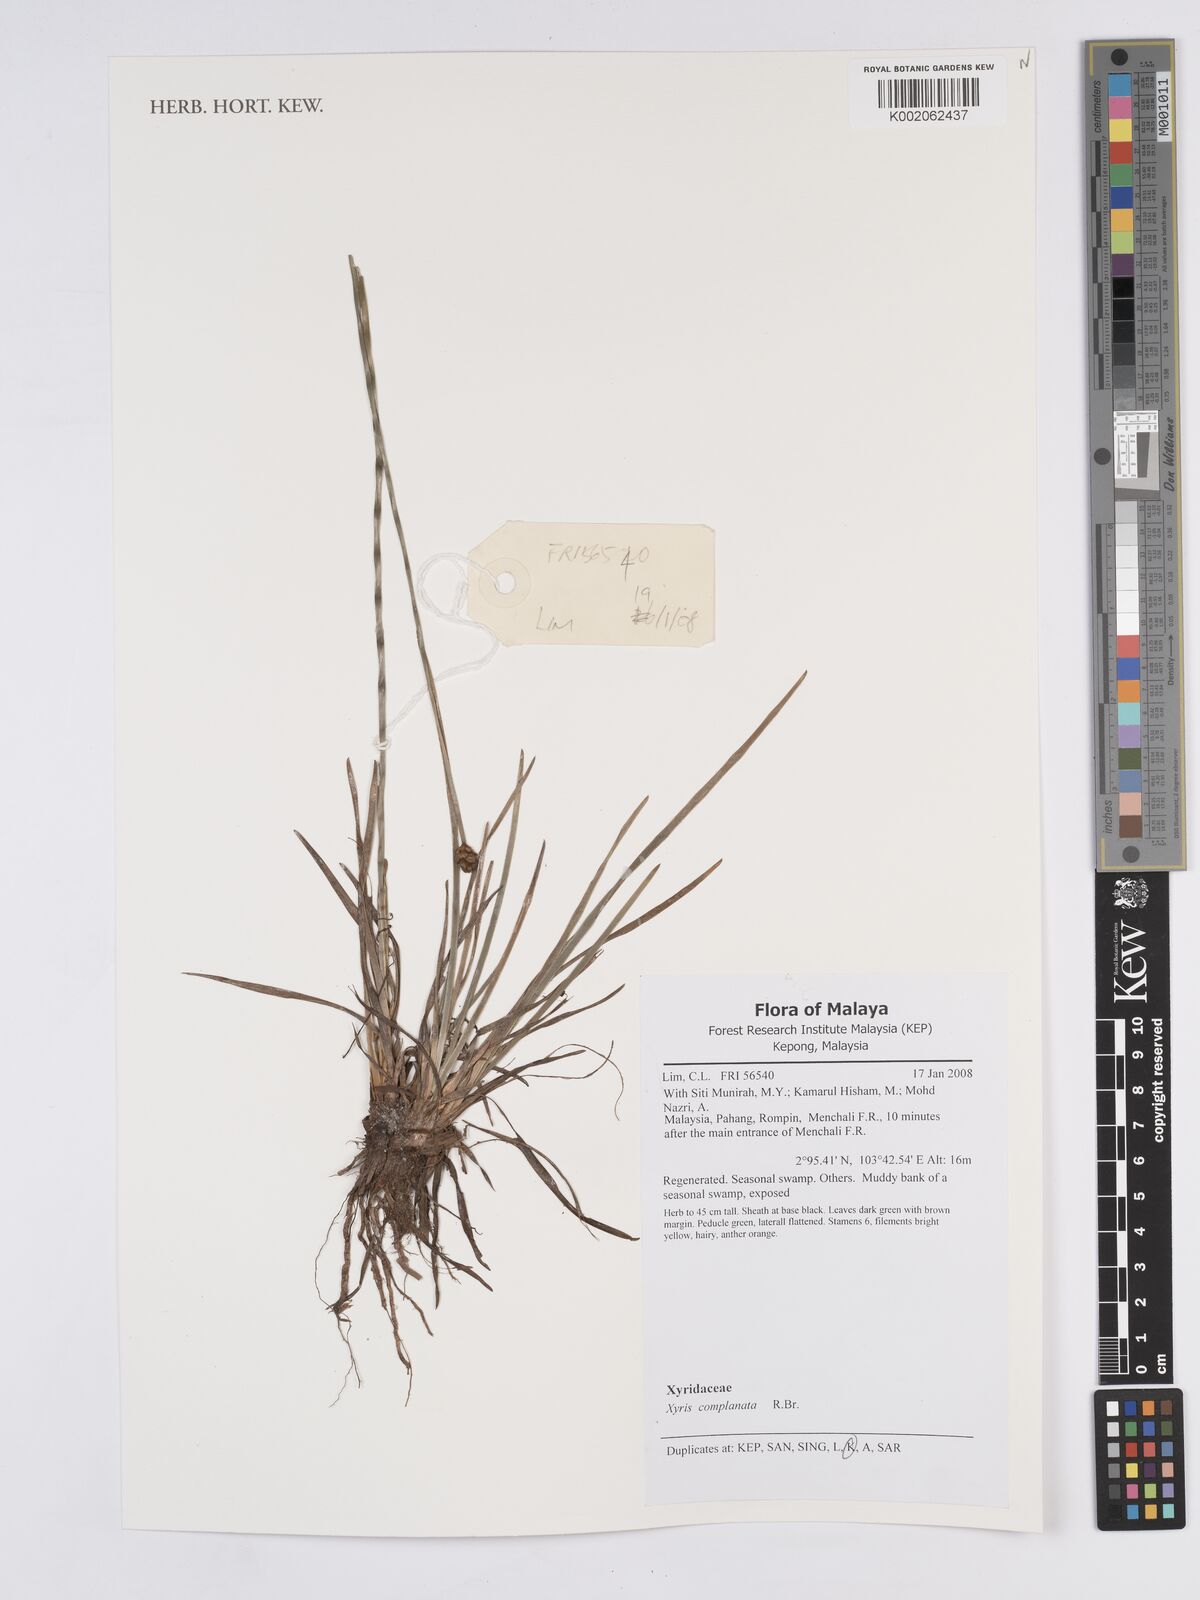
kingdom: Plantae
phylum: Tracheophyta
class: Liliopsida
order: Poales
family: Xyridaceae
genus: Xyris
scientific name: Xyris complanata
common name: Hawai'i yelloweyed grass
